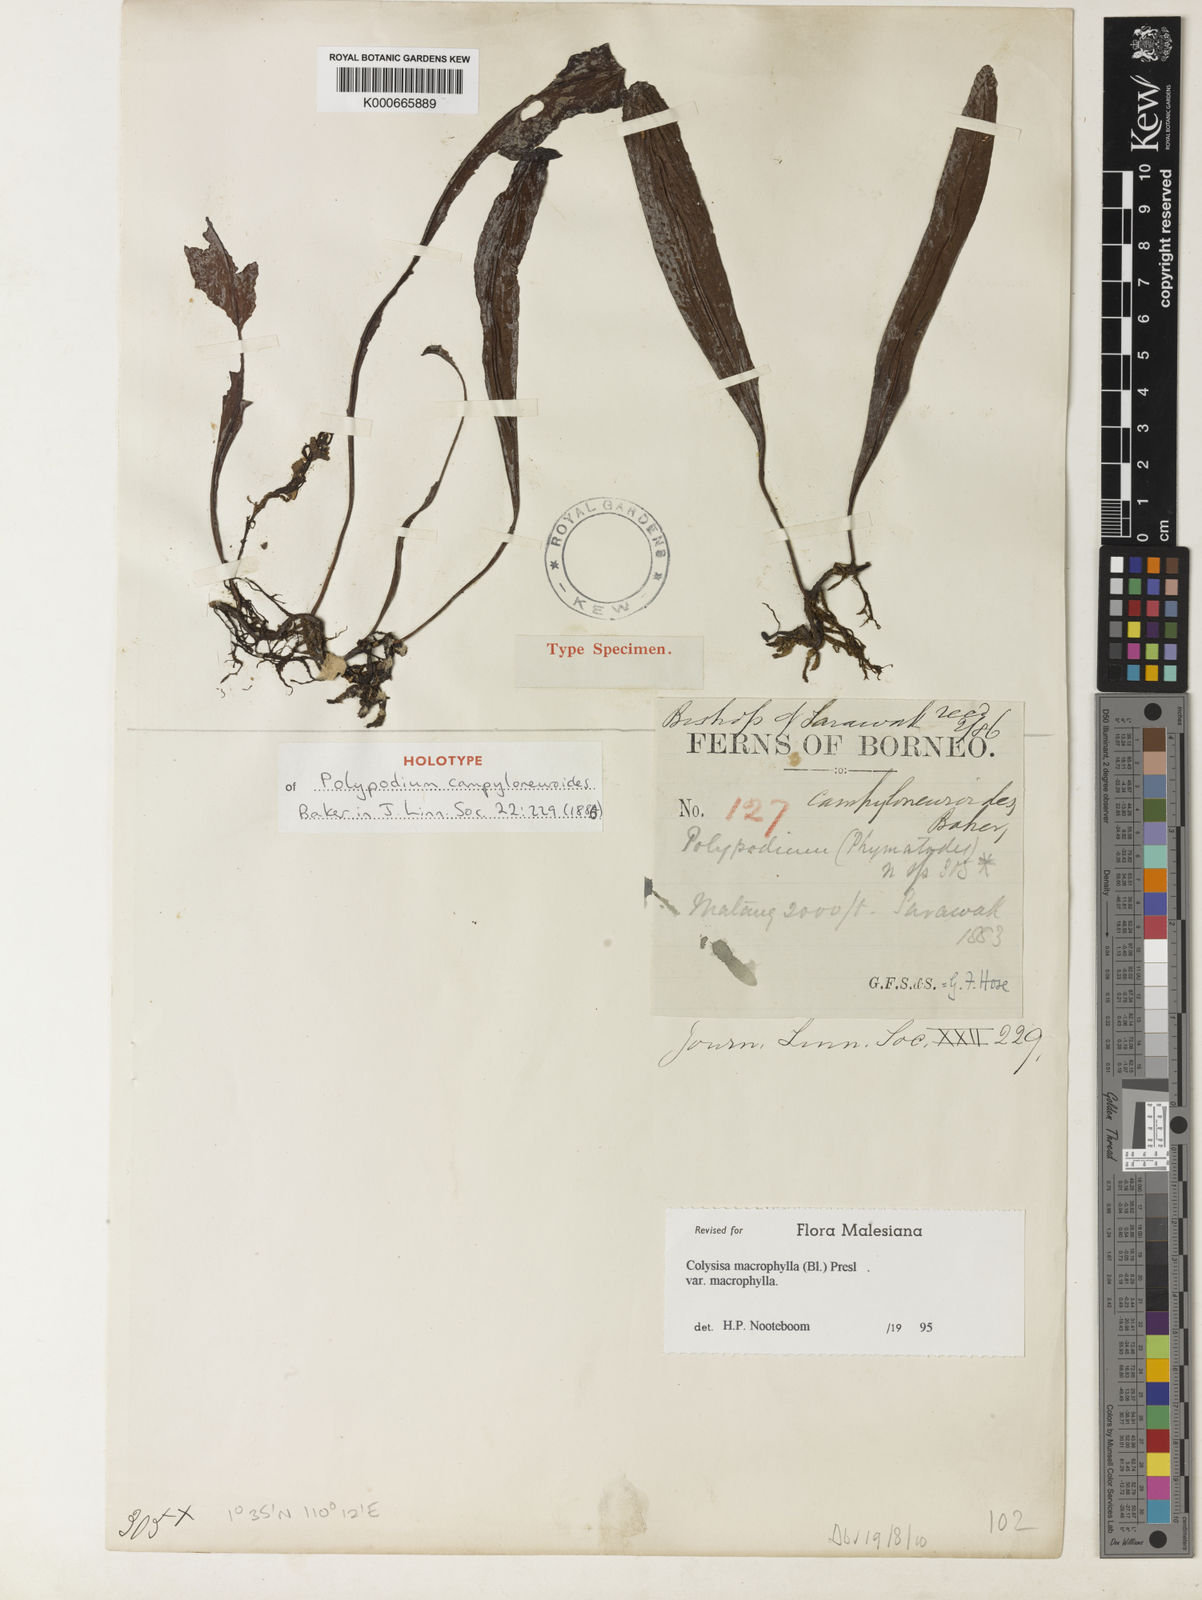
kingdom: Plantae
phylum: Tracheophyta
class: Polypodiopsida
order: Polypodiales
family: Polypodiaceae
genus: Leptochilus
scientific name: Leptochilus macrophyllus
